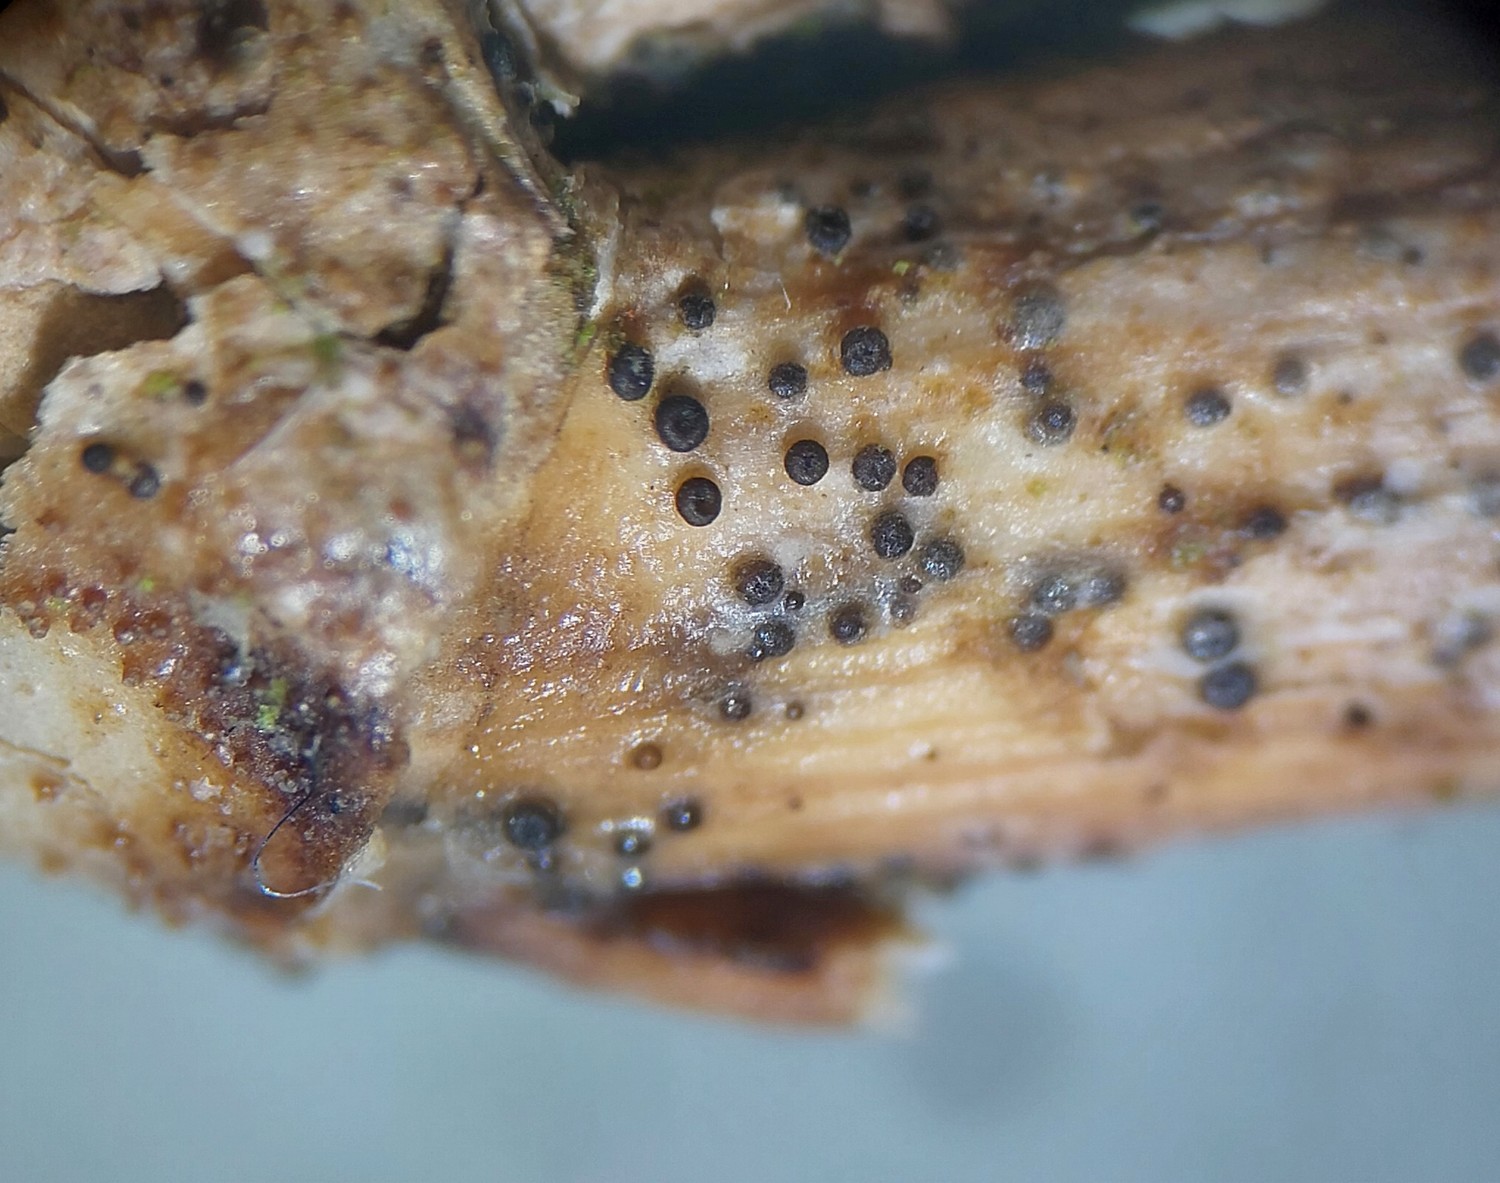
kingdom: Fungi
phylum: Ascomycota
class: Leotiomycetes
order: Helotiales
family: Heterosphaeriaceae
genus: Heterosphaeria
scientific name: Heterosphaeria
